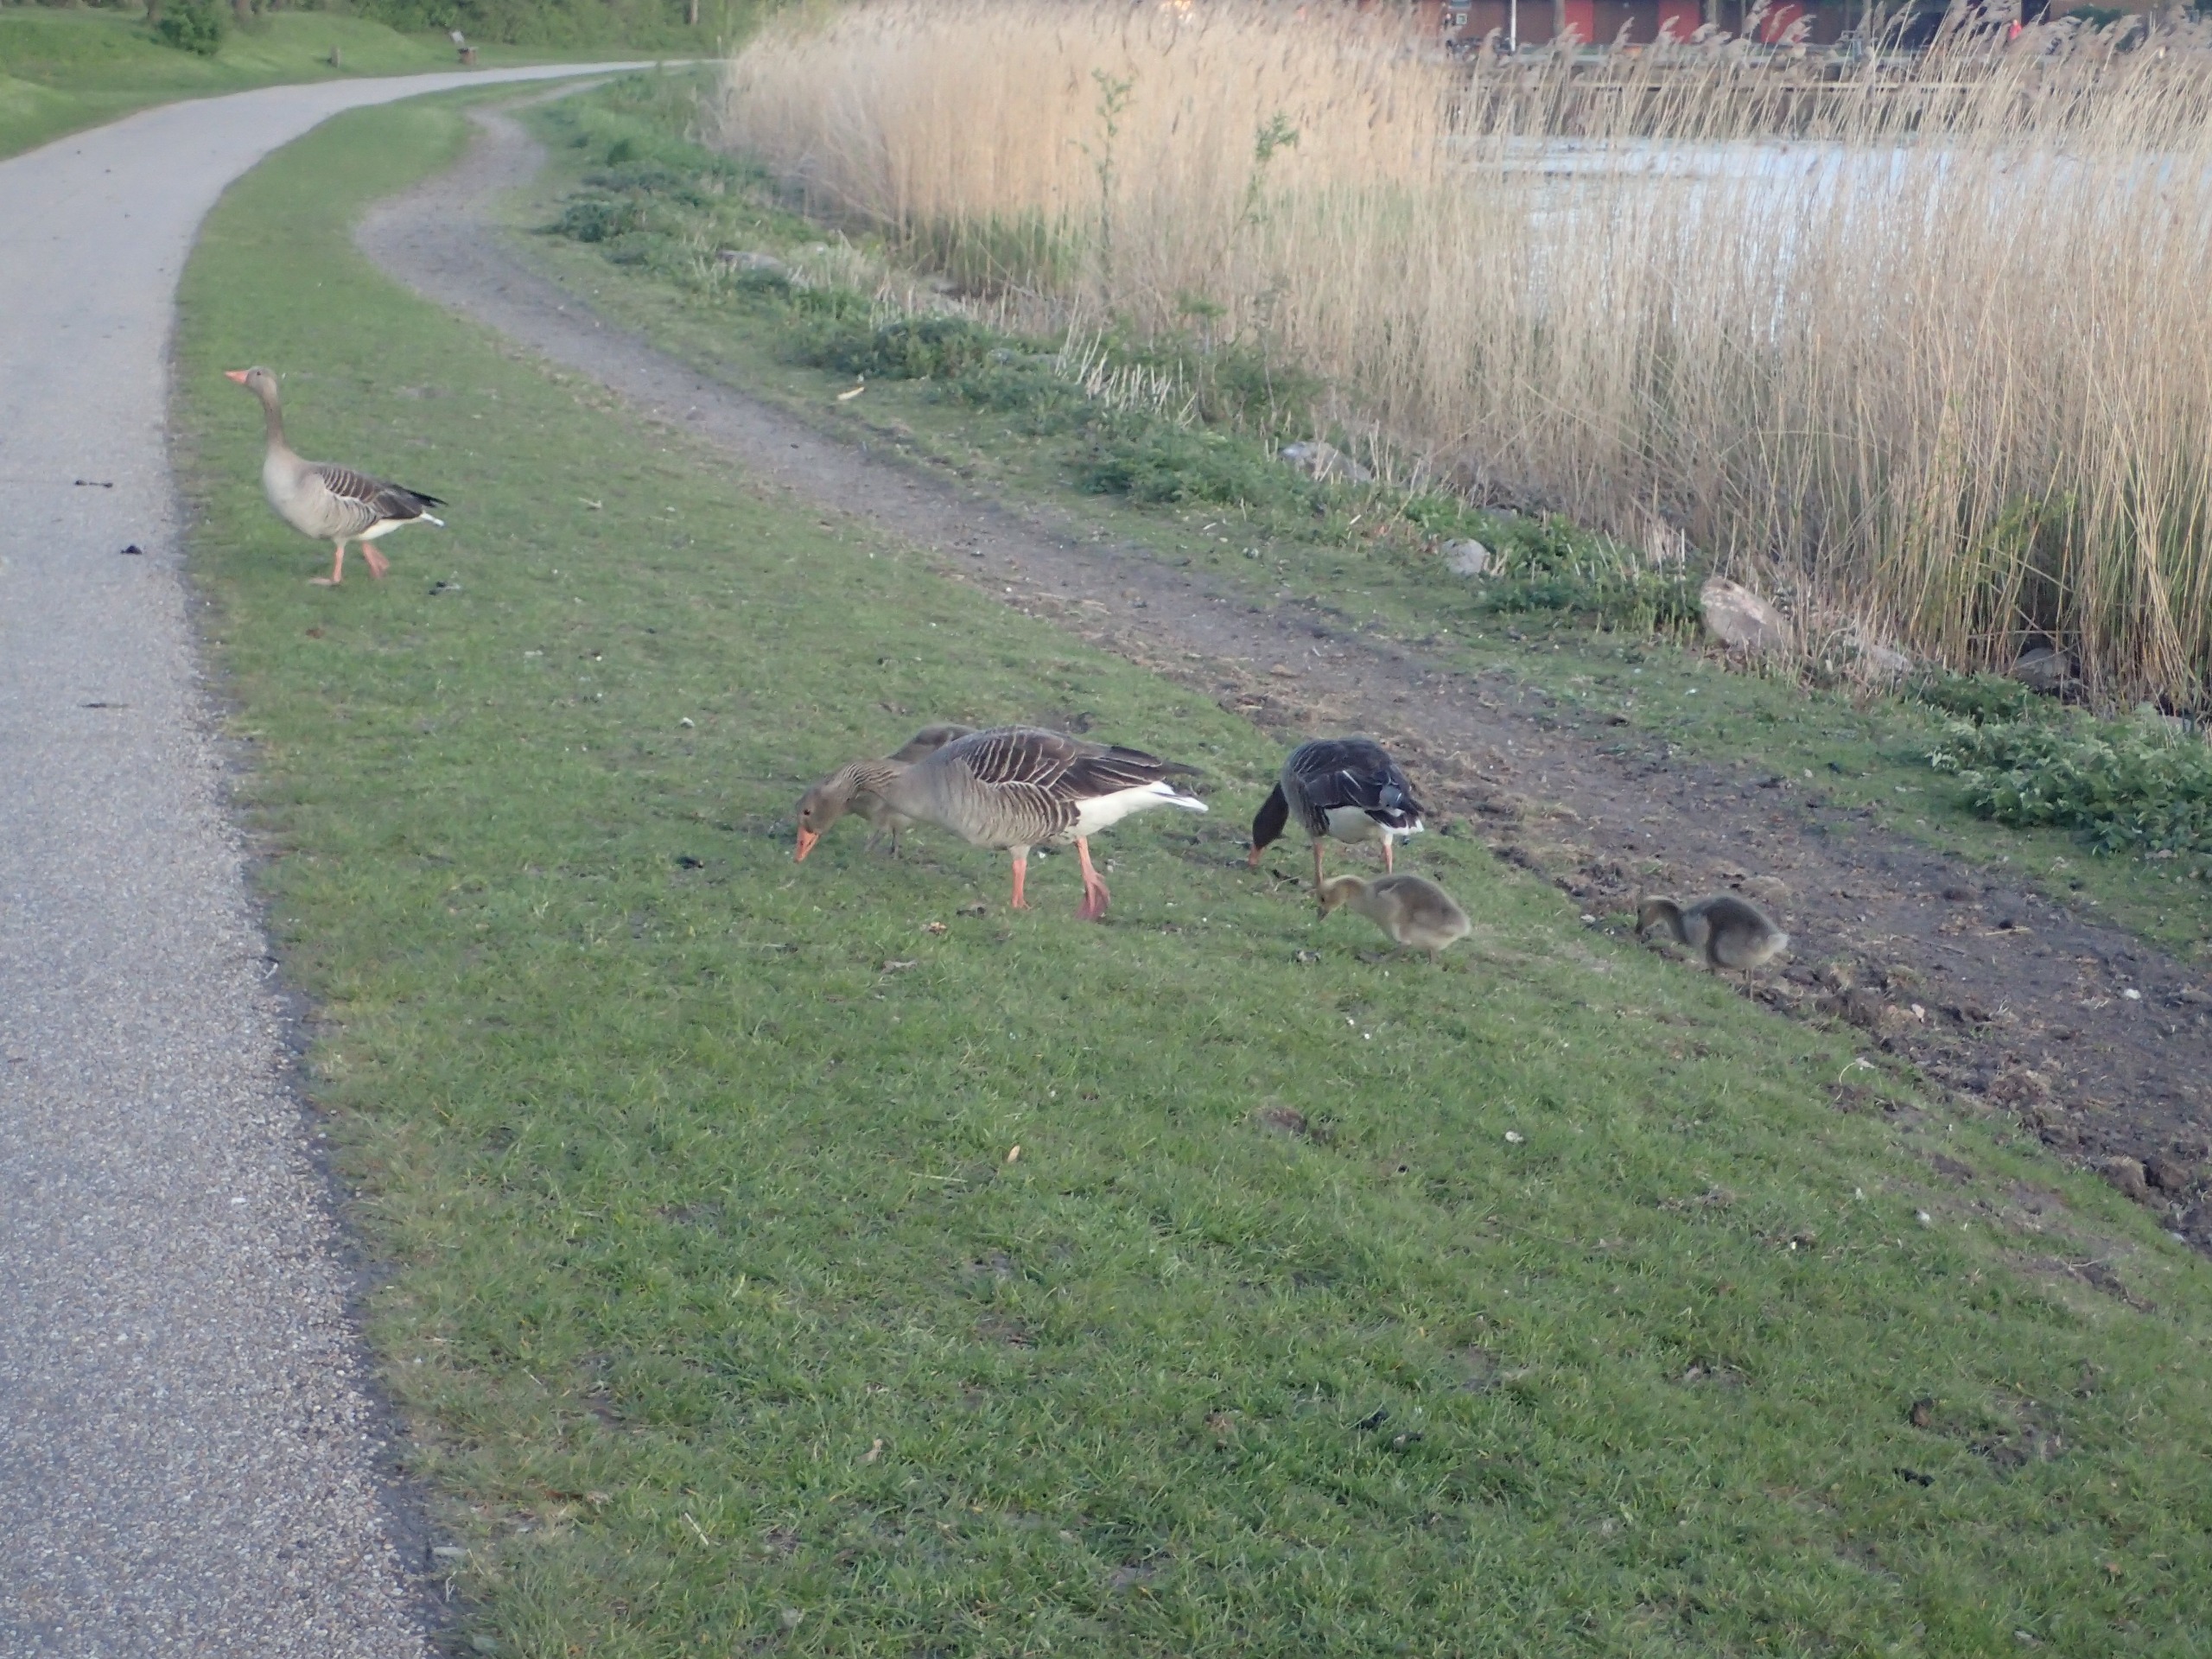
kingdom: Animalia
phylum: Chordata
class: Aves
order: Anseriformes
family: Anatidae
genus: Anser
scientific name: Anser anser
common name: Grågås
